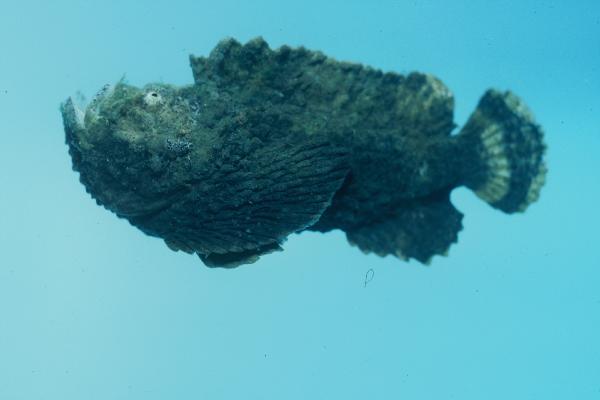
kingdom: Animalia
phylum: Chordata
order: Scorpaeniformes
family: Synanceiidae
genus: Synanceia
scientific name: Synanceia verrucosa
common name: Stonefish
